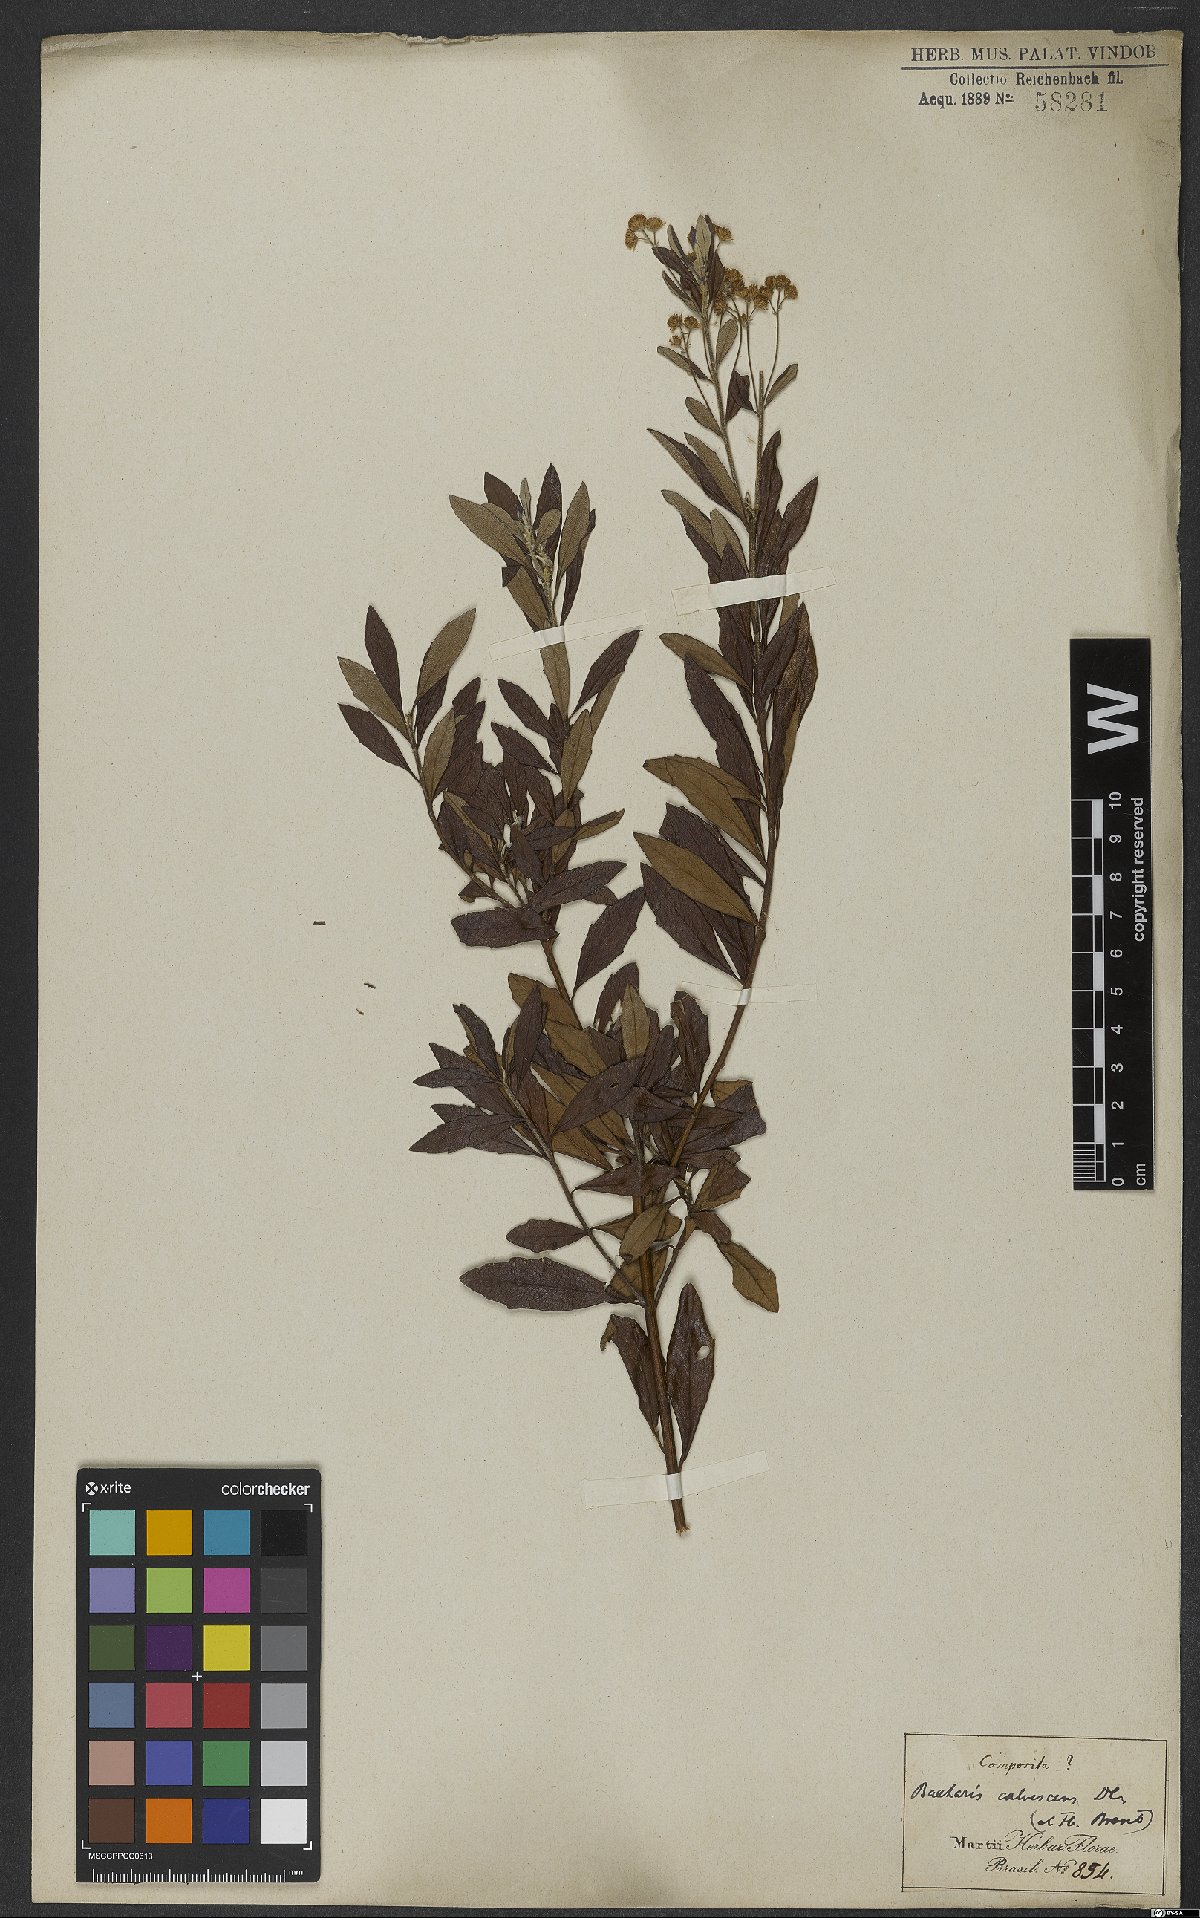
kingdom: Plantae
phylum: Tracheophyta
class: Magnoliopsida
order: Asterales
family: Asteraceae
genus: Baccharis
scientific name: Baccharis calvescens
